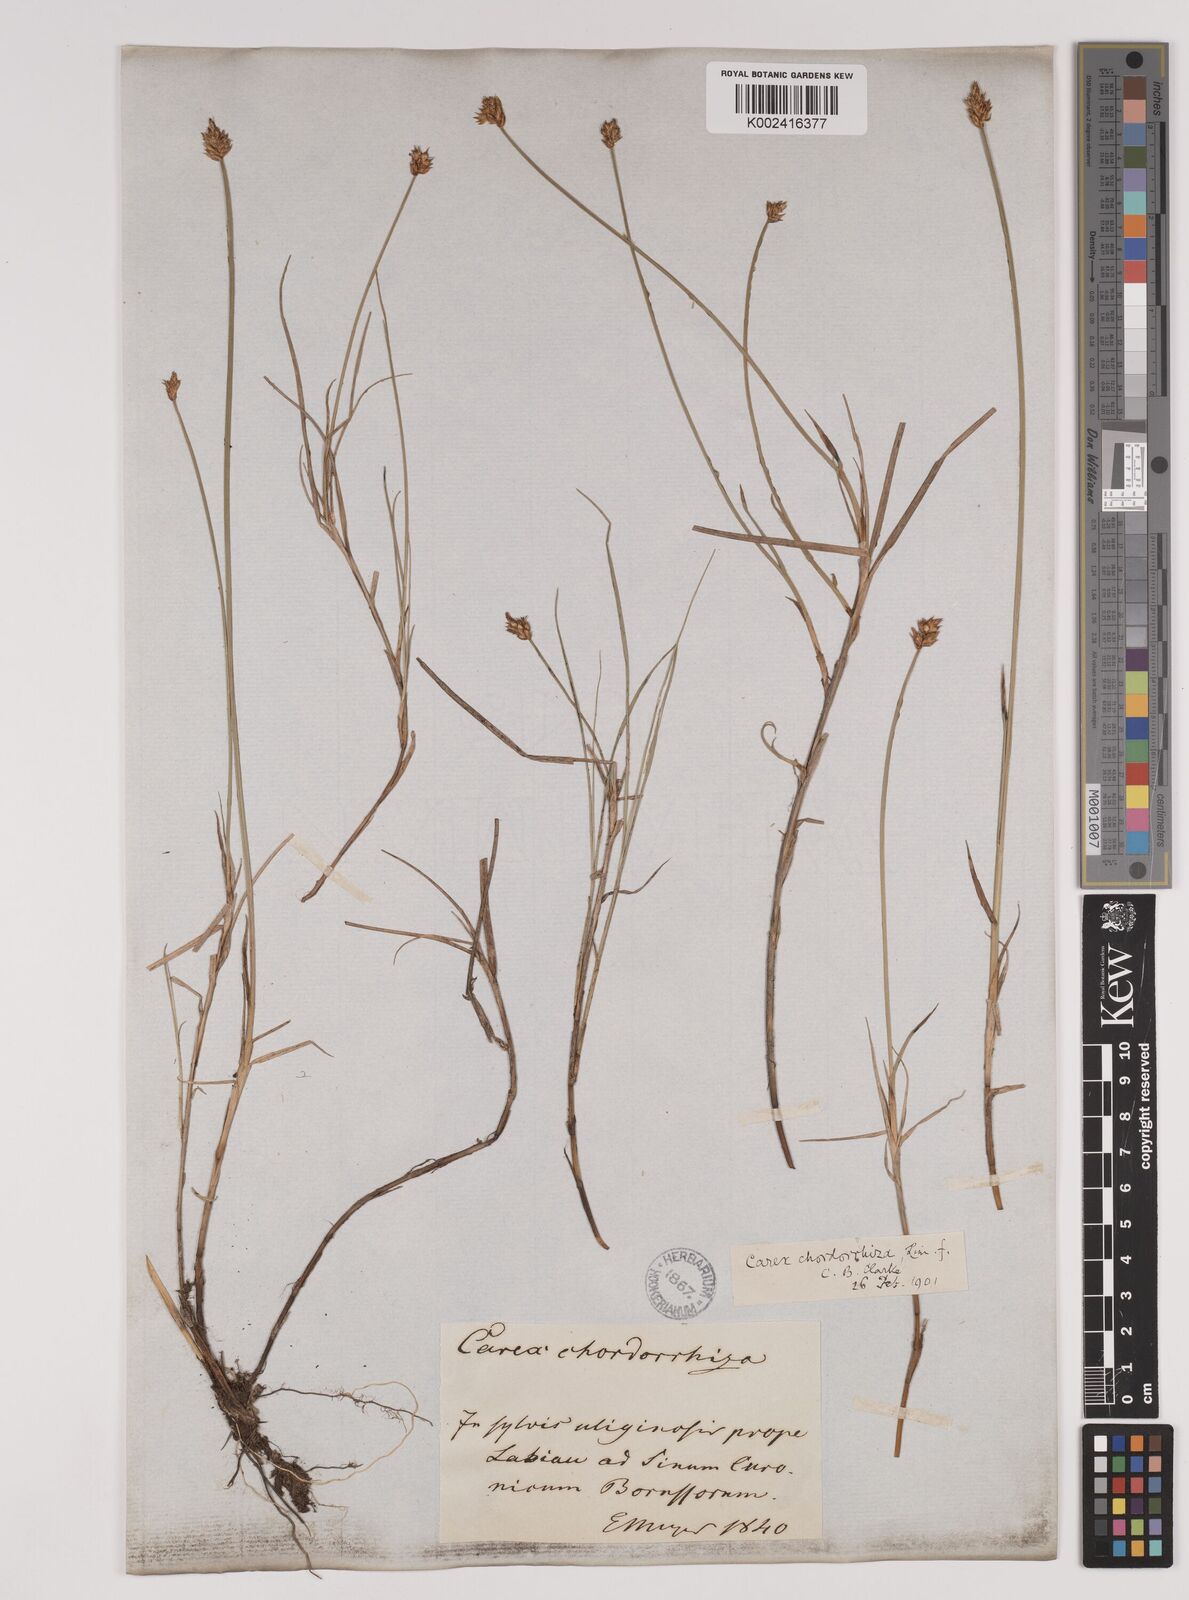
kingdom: Plantae
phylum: Tracheophyta
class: Liliopsida
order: Poales
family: Cyperaceae
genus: Carex
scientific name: Carex chordorrhiza
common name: String sedge
